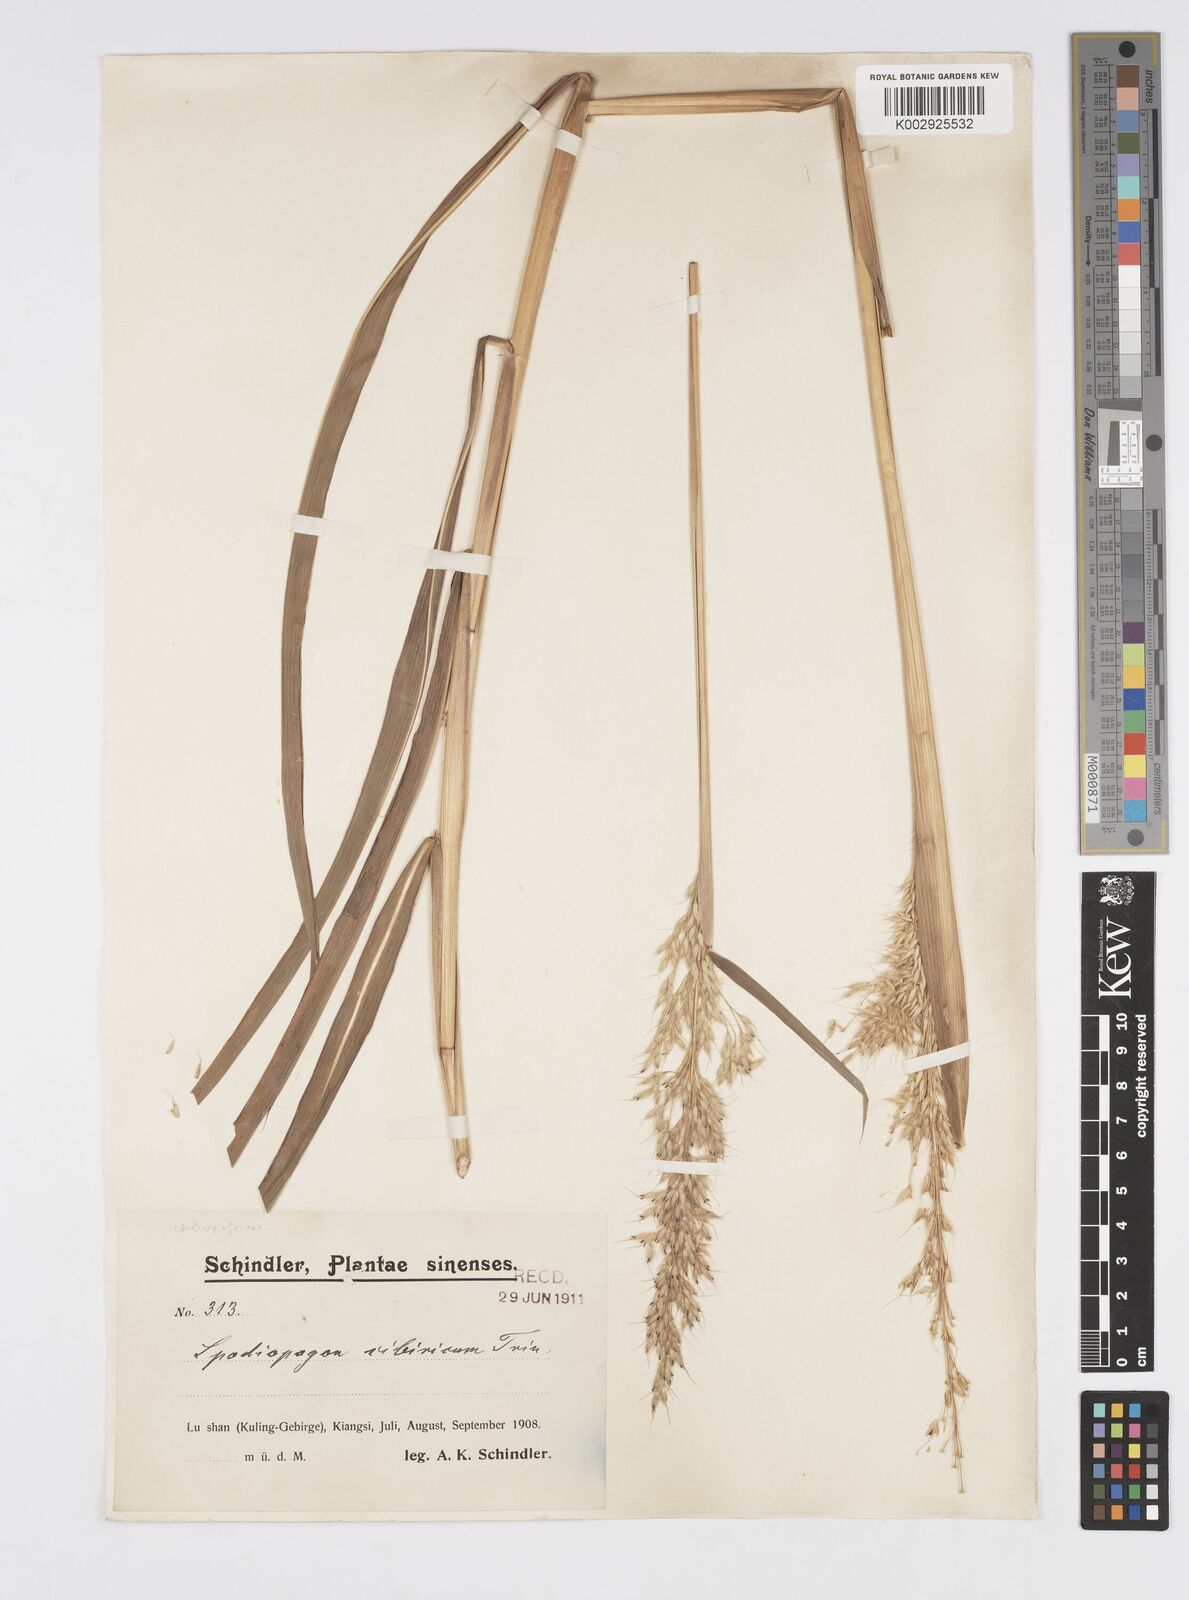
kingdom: Plantae
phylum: Tracheophyta
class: Liliopsida
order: Poales
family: Poaceae
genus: Spodiopogon
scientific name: Spodiopogon sibiricus
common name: Siberian graybeard
